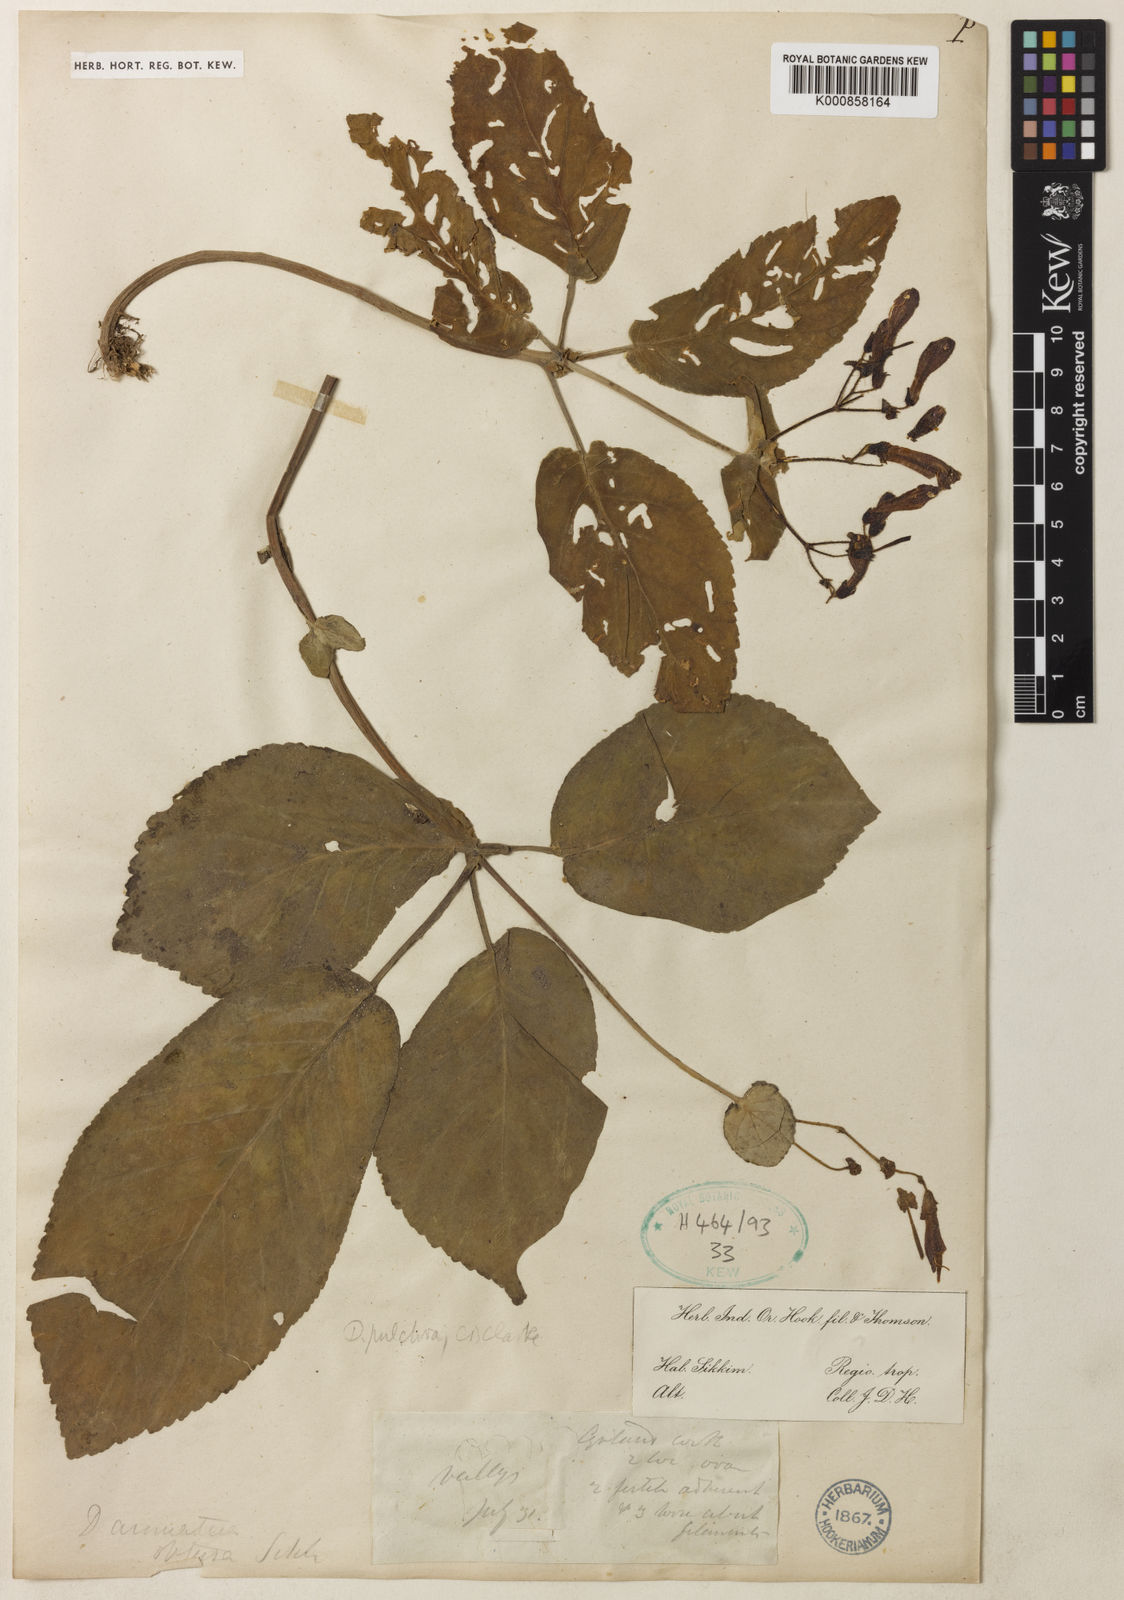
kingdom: Plantae
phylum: Tracheophyta
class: Magnoliopsida
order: Lamiales
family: Gesneriaceae
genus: Henckelia
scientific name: Henckelia
